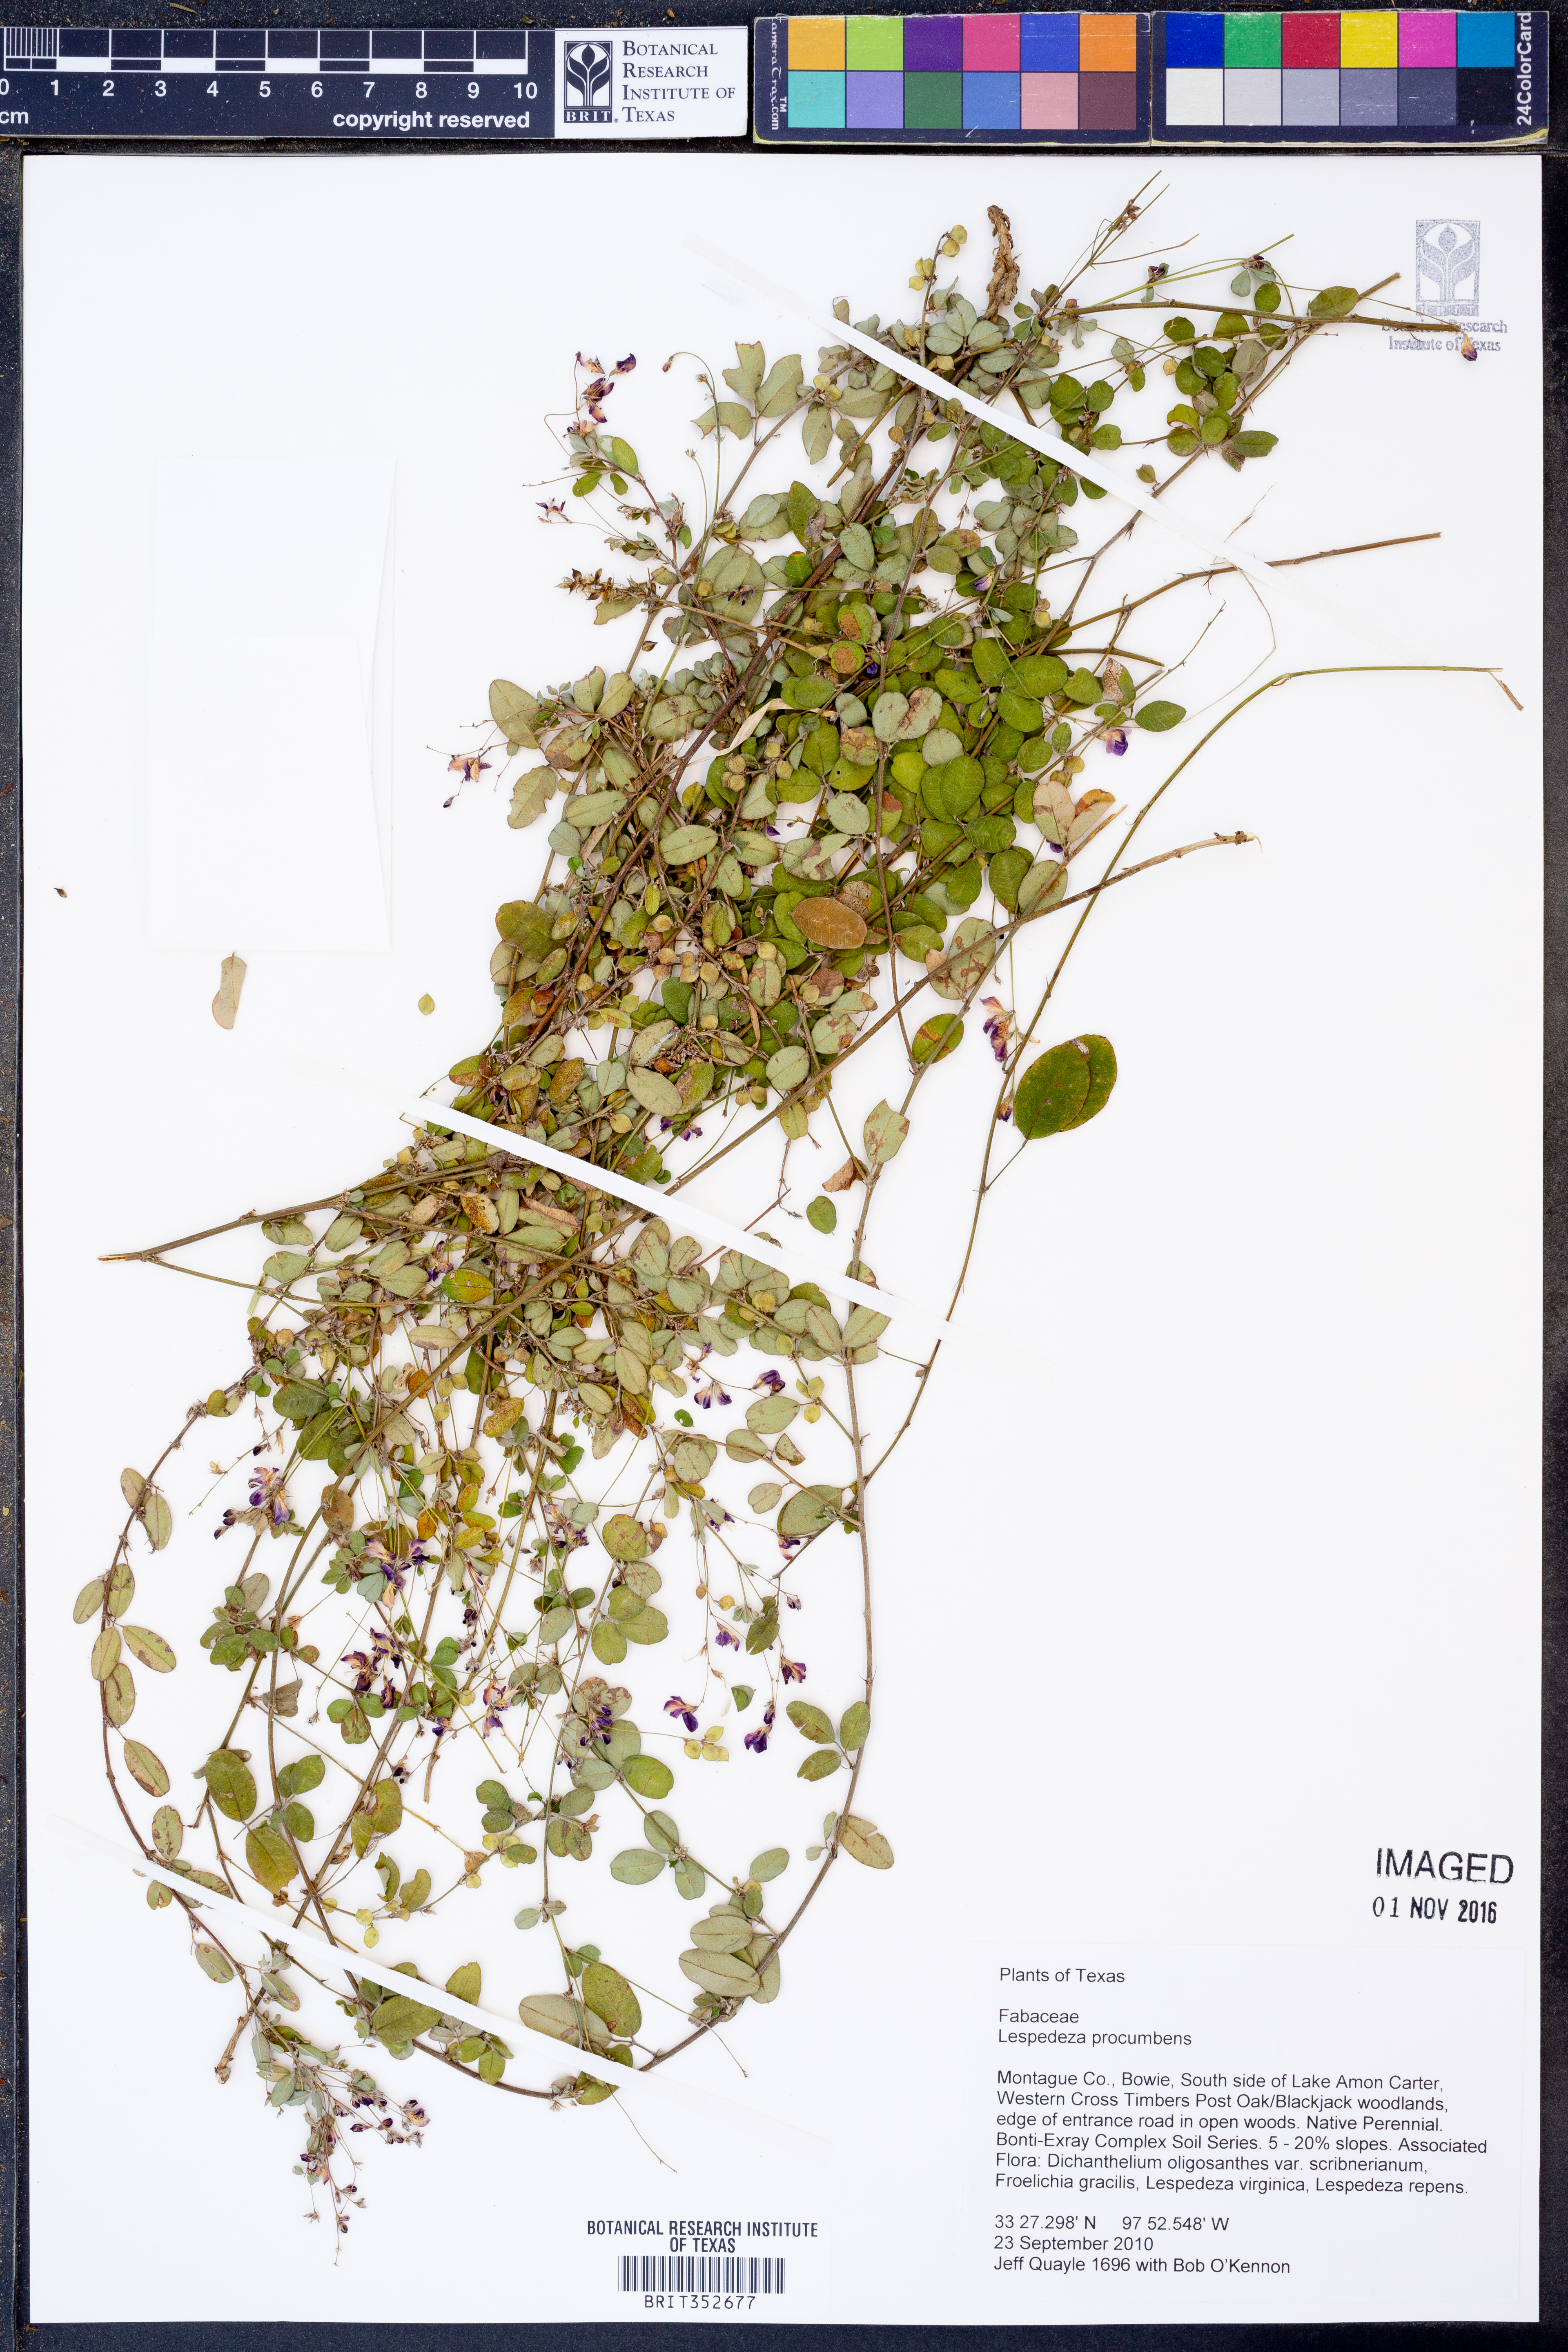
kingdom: Plantae
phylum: Tracheophyta
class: Magnoliopsida
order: Fabales
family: Fabaceae
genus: Lespedeza
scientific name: Lespedeza procumbens
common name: Downy trailing bush-clover
